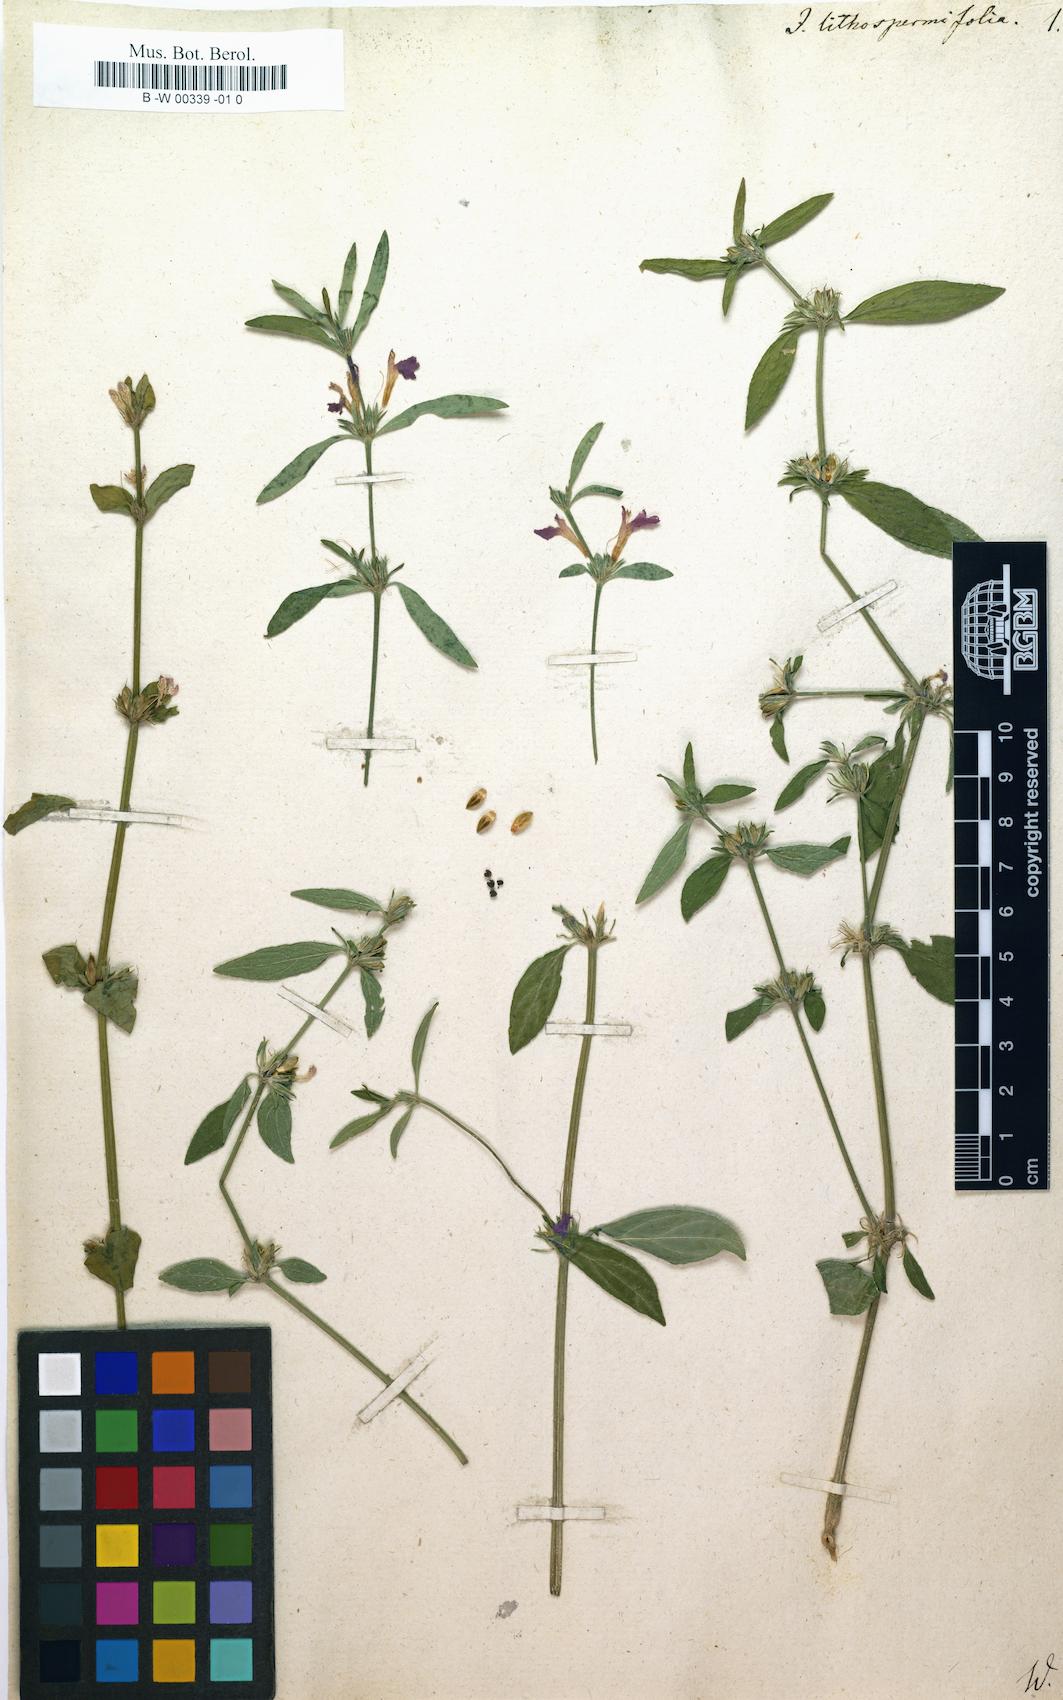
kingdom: Plantae
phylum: Tracheophyta
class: Magnoliopsida
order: Lamiales
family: Acanthaceae
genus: Justicia
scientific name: Justicia ladanoides
